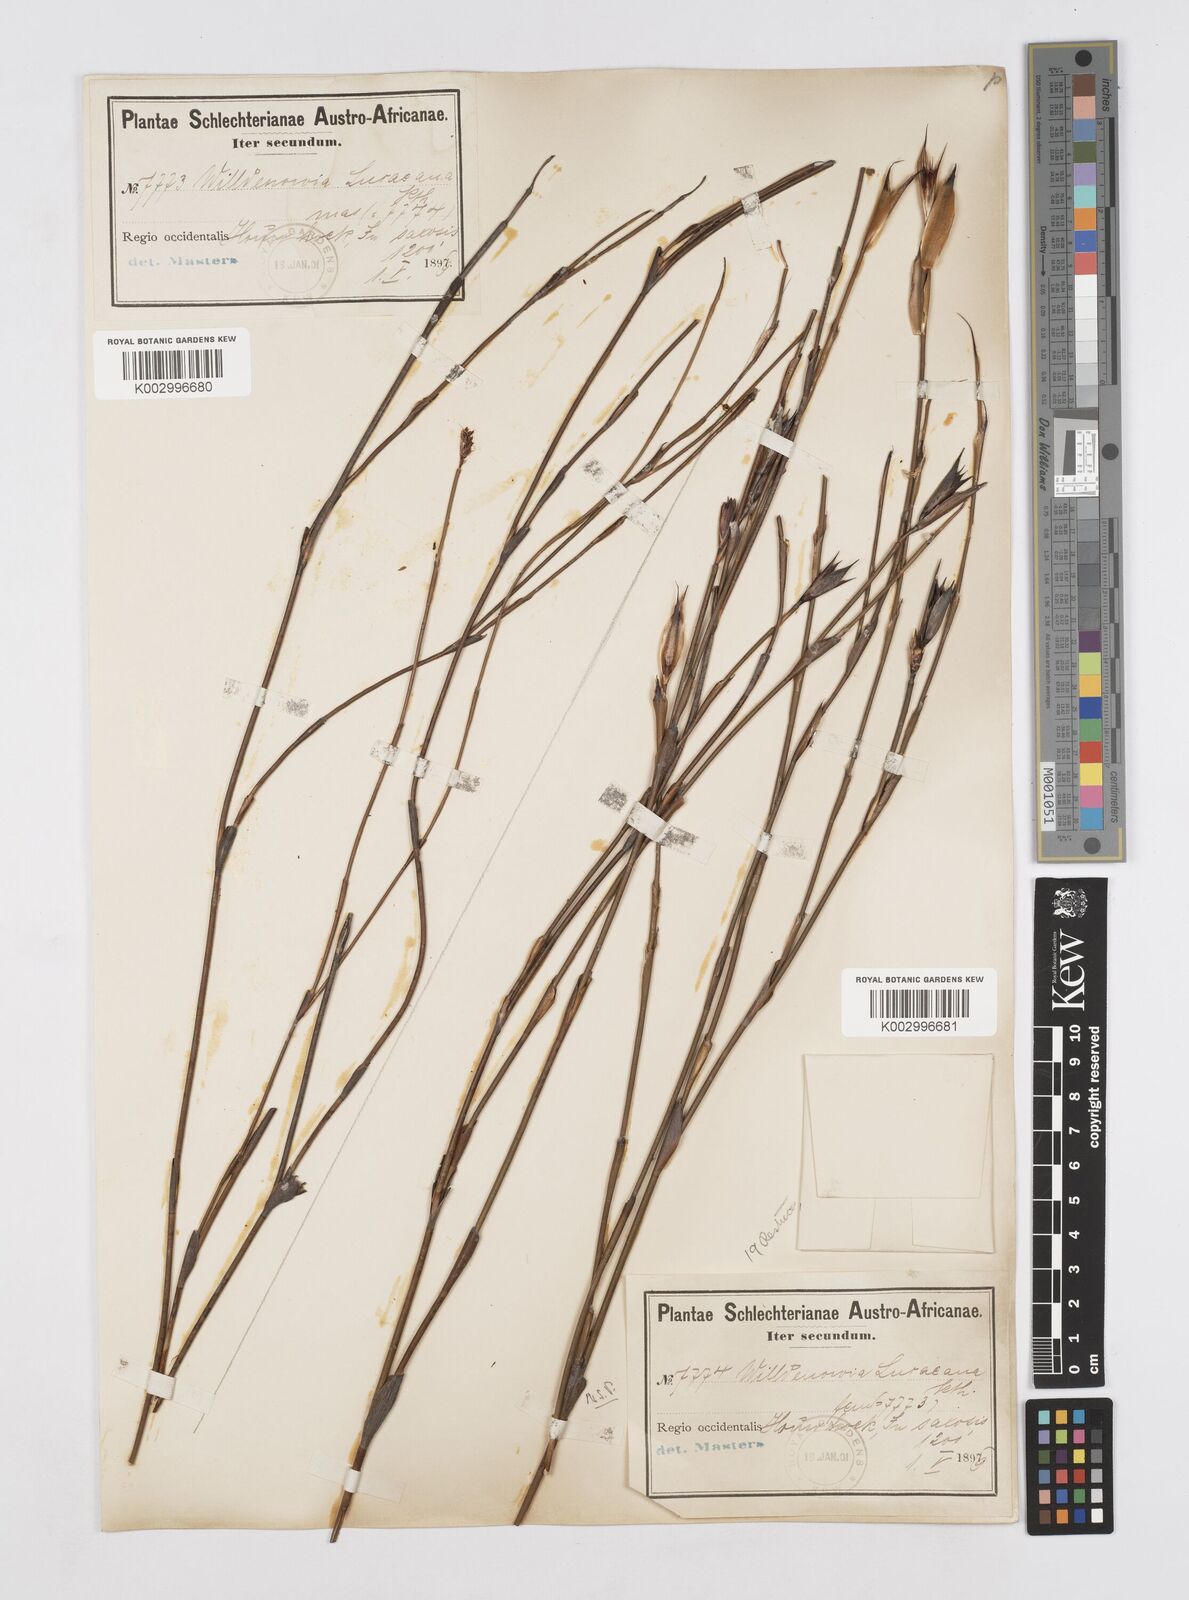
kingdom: Plantae
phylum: Tracheophyta
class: Liliopsida
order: Poales
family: Restionaceae
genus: Willdenowia
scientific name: Willdenowia glomerata
